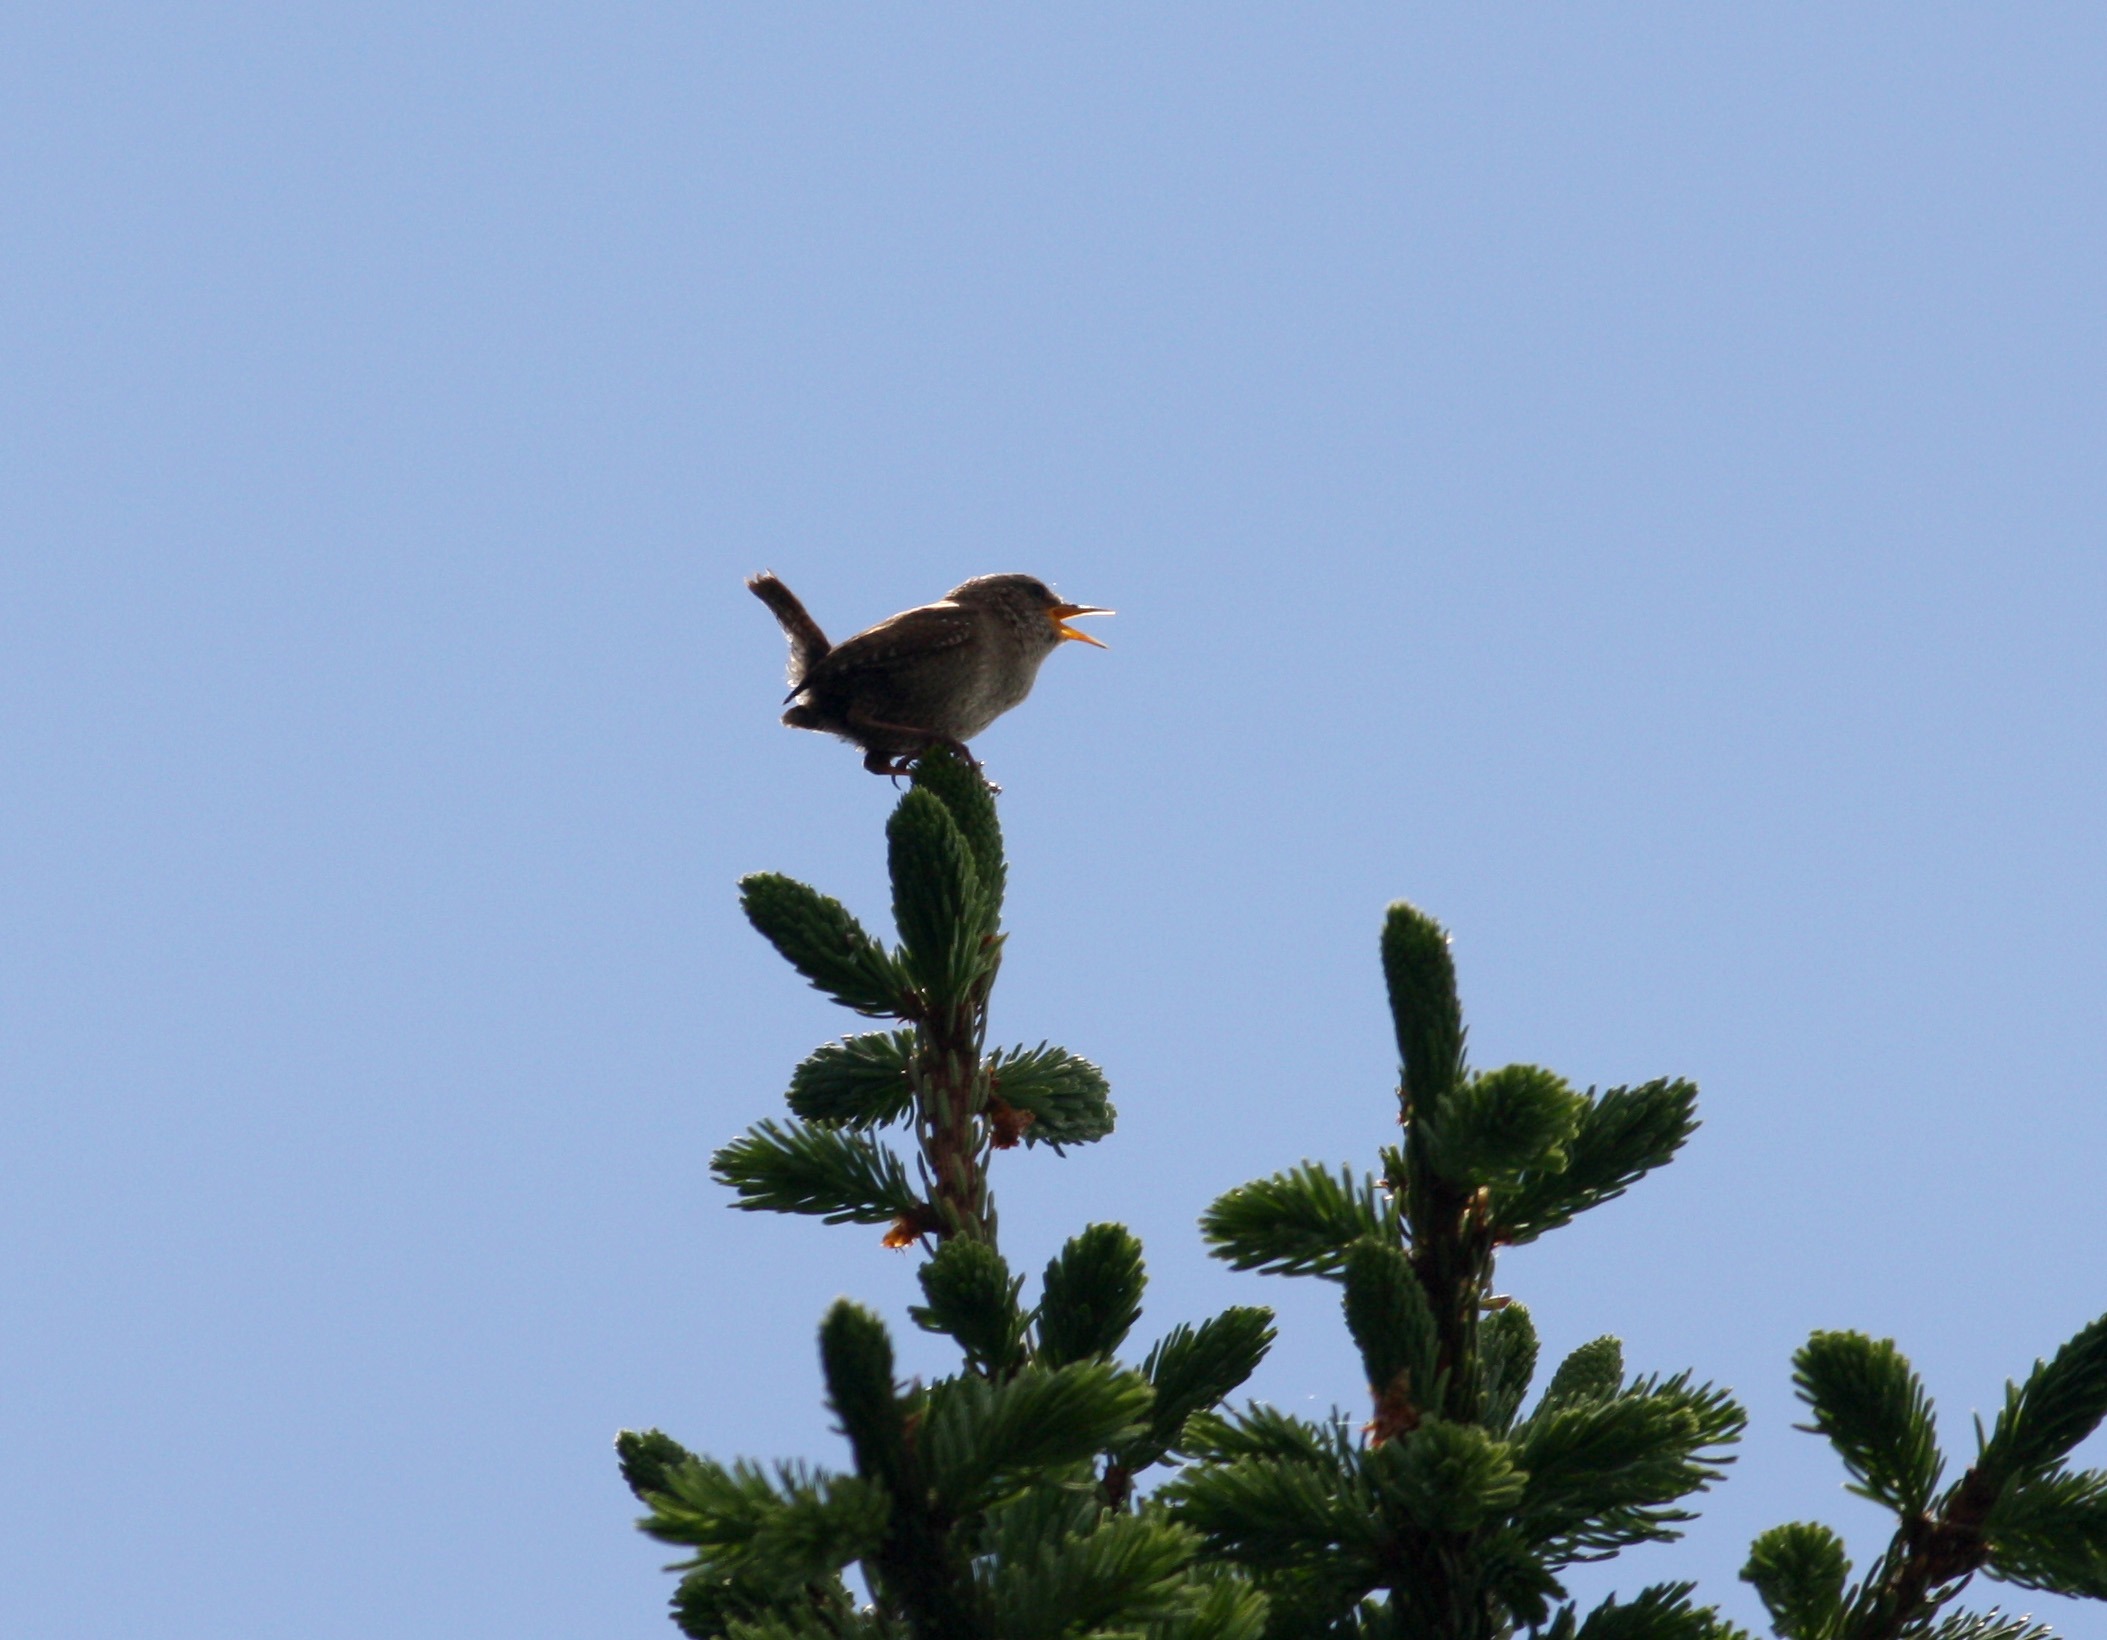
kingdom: Animalia
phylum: Chordata
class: Aves
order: Passeriformes
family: Troglodytidae
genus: Troglodytes
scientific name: Troglodytes troglodytes
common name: Gærdesmutte
